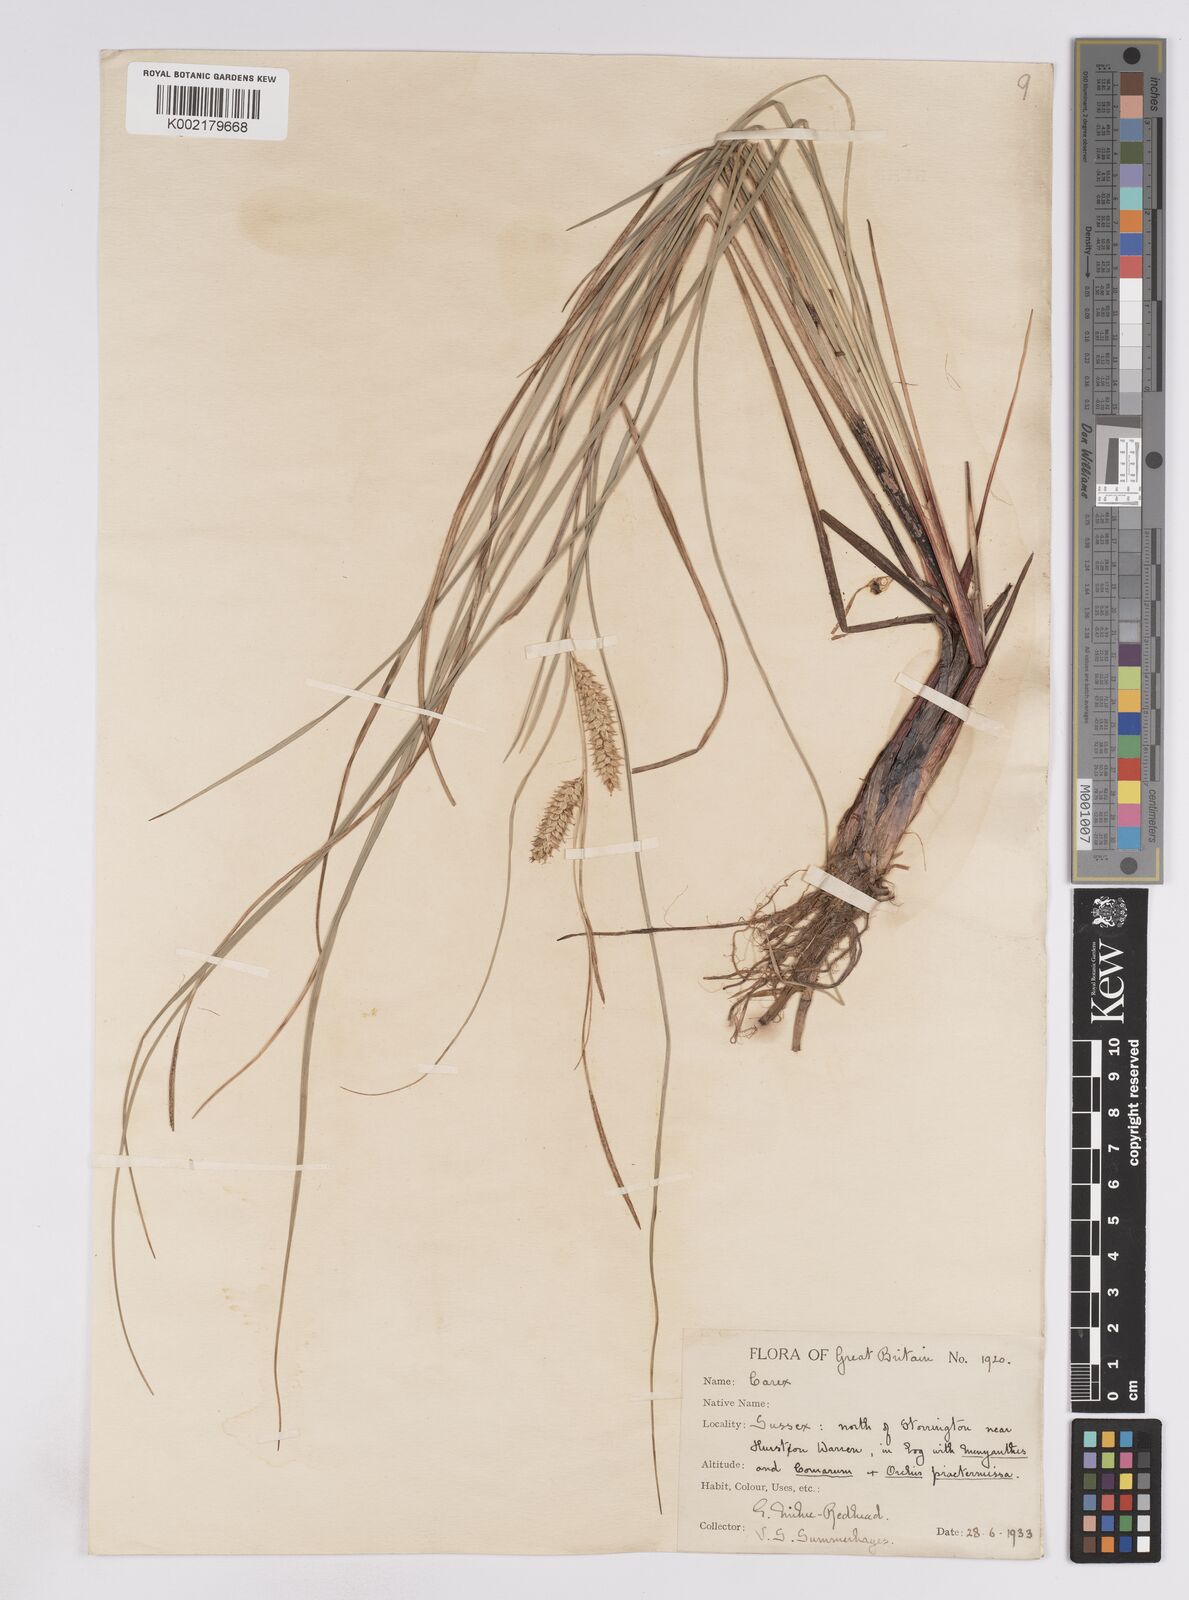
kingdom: Plantae
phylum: Tracheophyta
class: Liliopsida
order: Poales
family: Cyperaceae
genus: Carex
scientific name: Carex rostrata
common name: Bottle sedge
